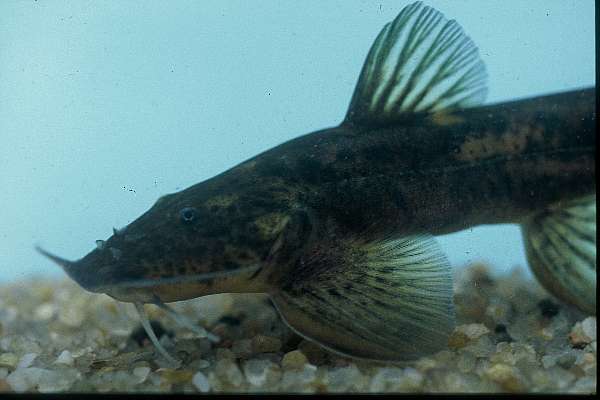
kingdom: Animalia
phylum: Chordata
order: Siluriformes
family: Amphiliidae
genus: Amphilius
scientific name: Amphilius uranoscopus
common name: Stargazer mountain catfish
